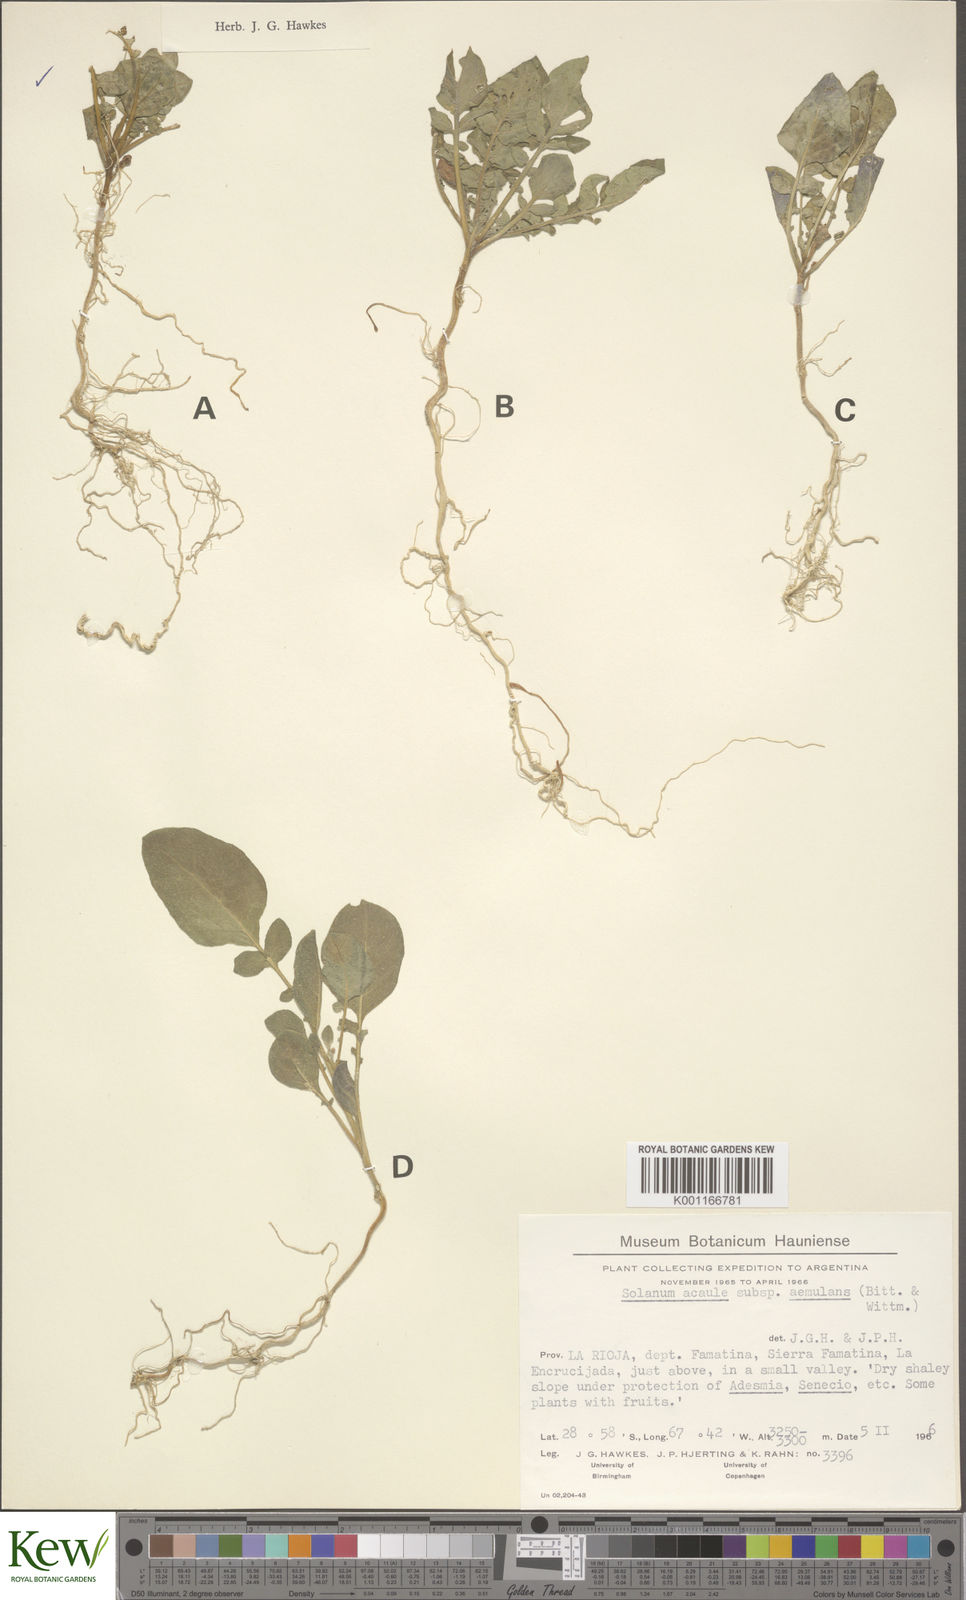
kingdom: Plantae
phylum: Tracheophyta
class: Magnoliopsida
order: Solanales
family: Solanaceae
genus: Solanum
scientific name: Solanum aemulans
